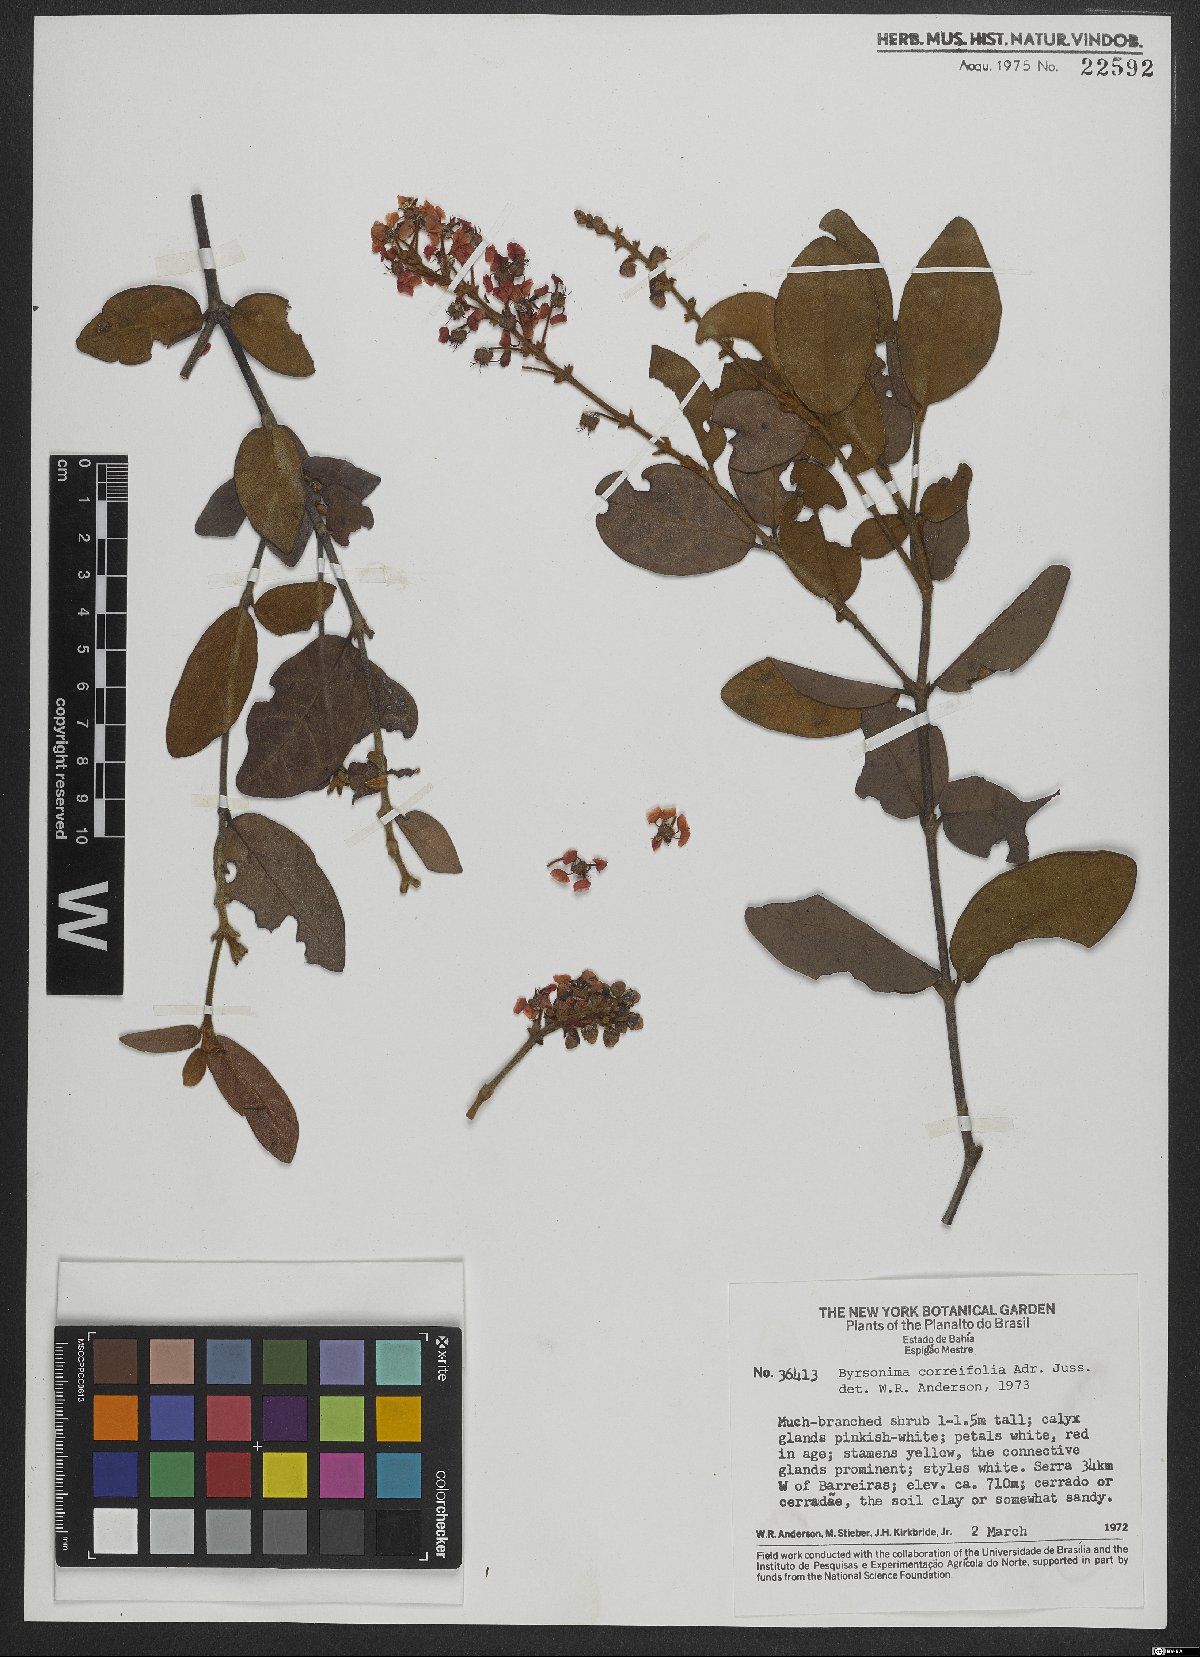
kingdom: Plantae
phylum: Tracheophyta
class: Magnoliopsida
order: Malpighiales
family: Malpighiaceae
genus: Byrsonima
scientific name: Byrsonima correifolia
